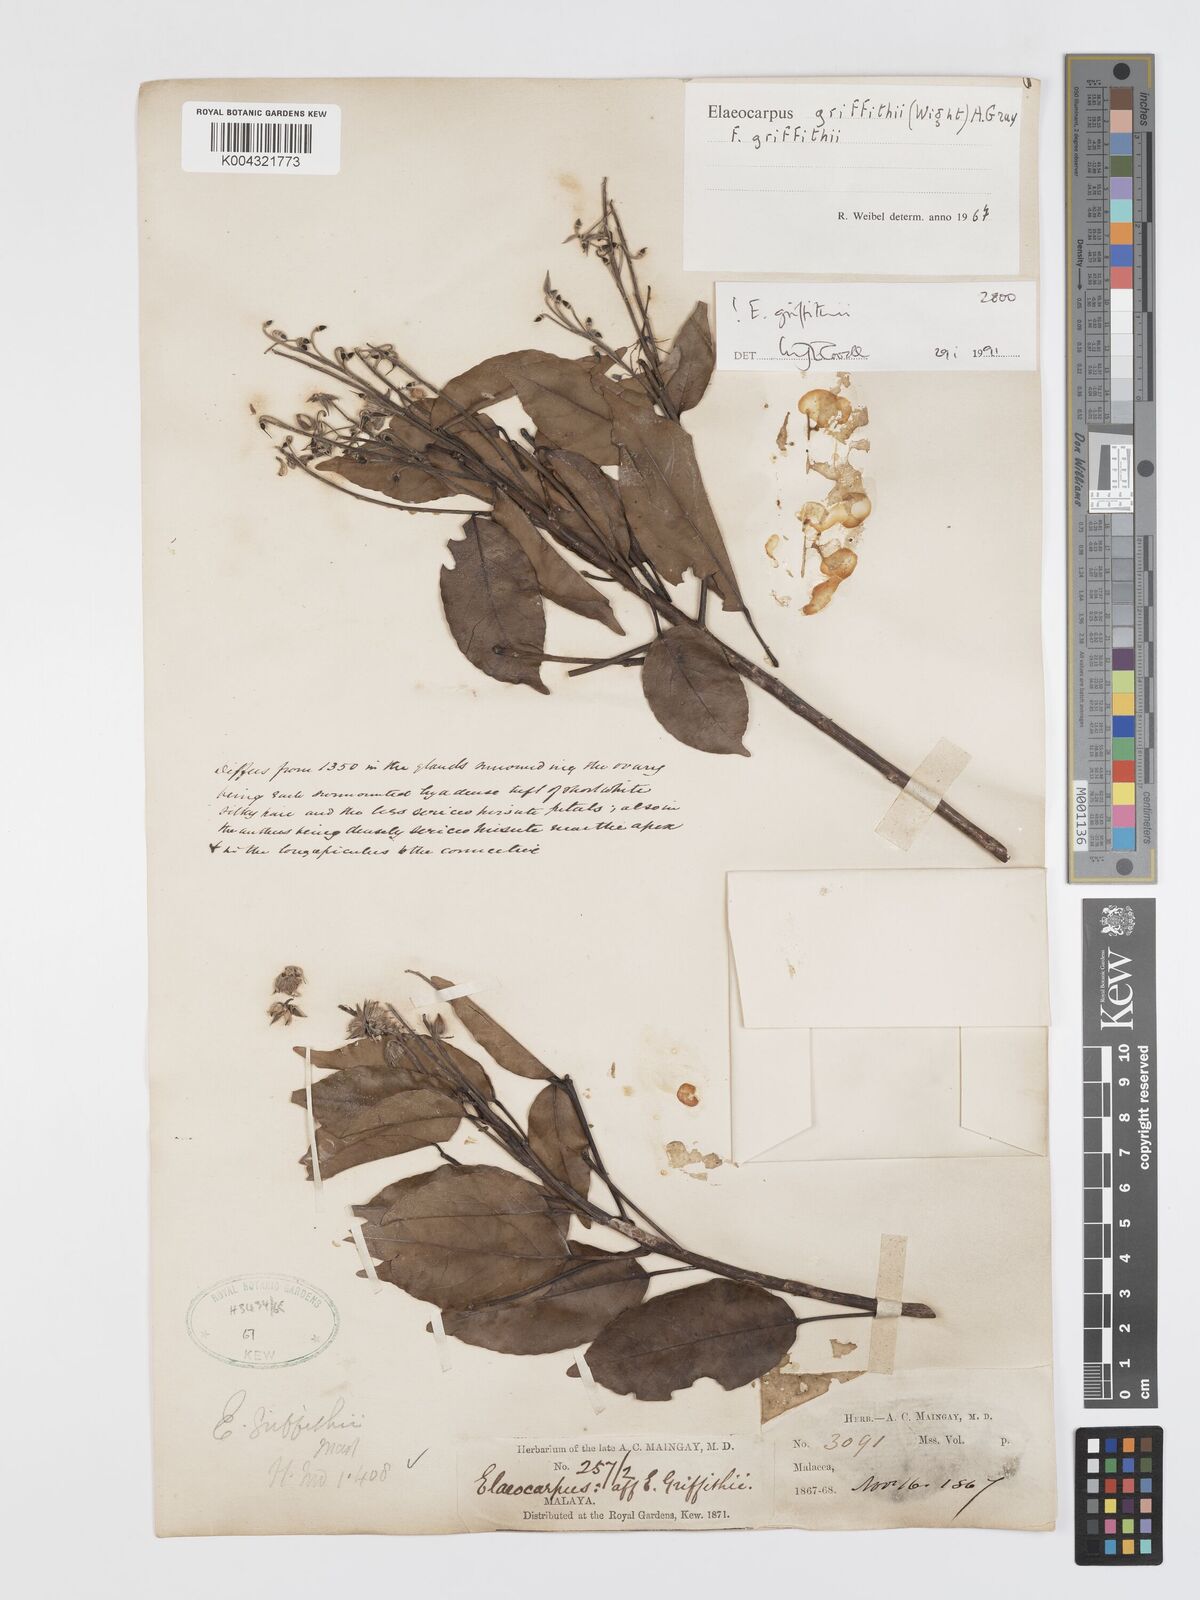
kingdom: Plantae
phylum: Tracheophyta
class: Magnoliopsida
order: Oxalidales
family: Elaeocarpaceae
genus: Elaeocarpus
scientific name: Elaeocarpus griffithii
